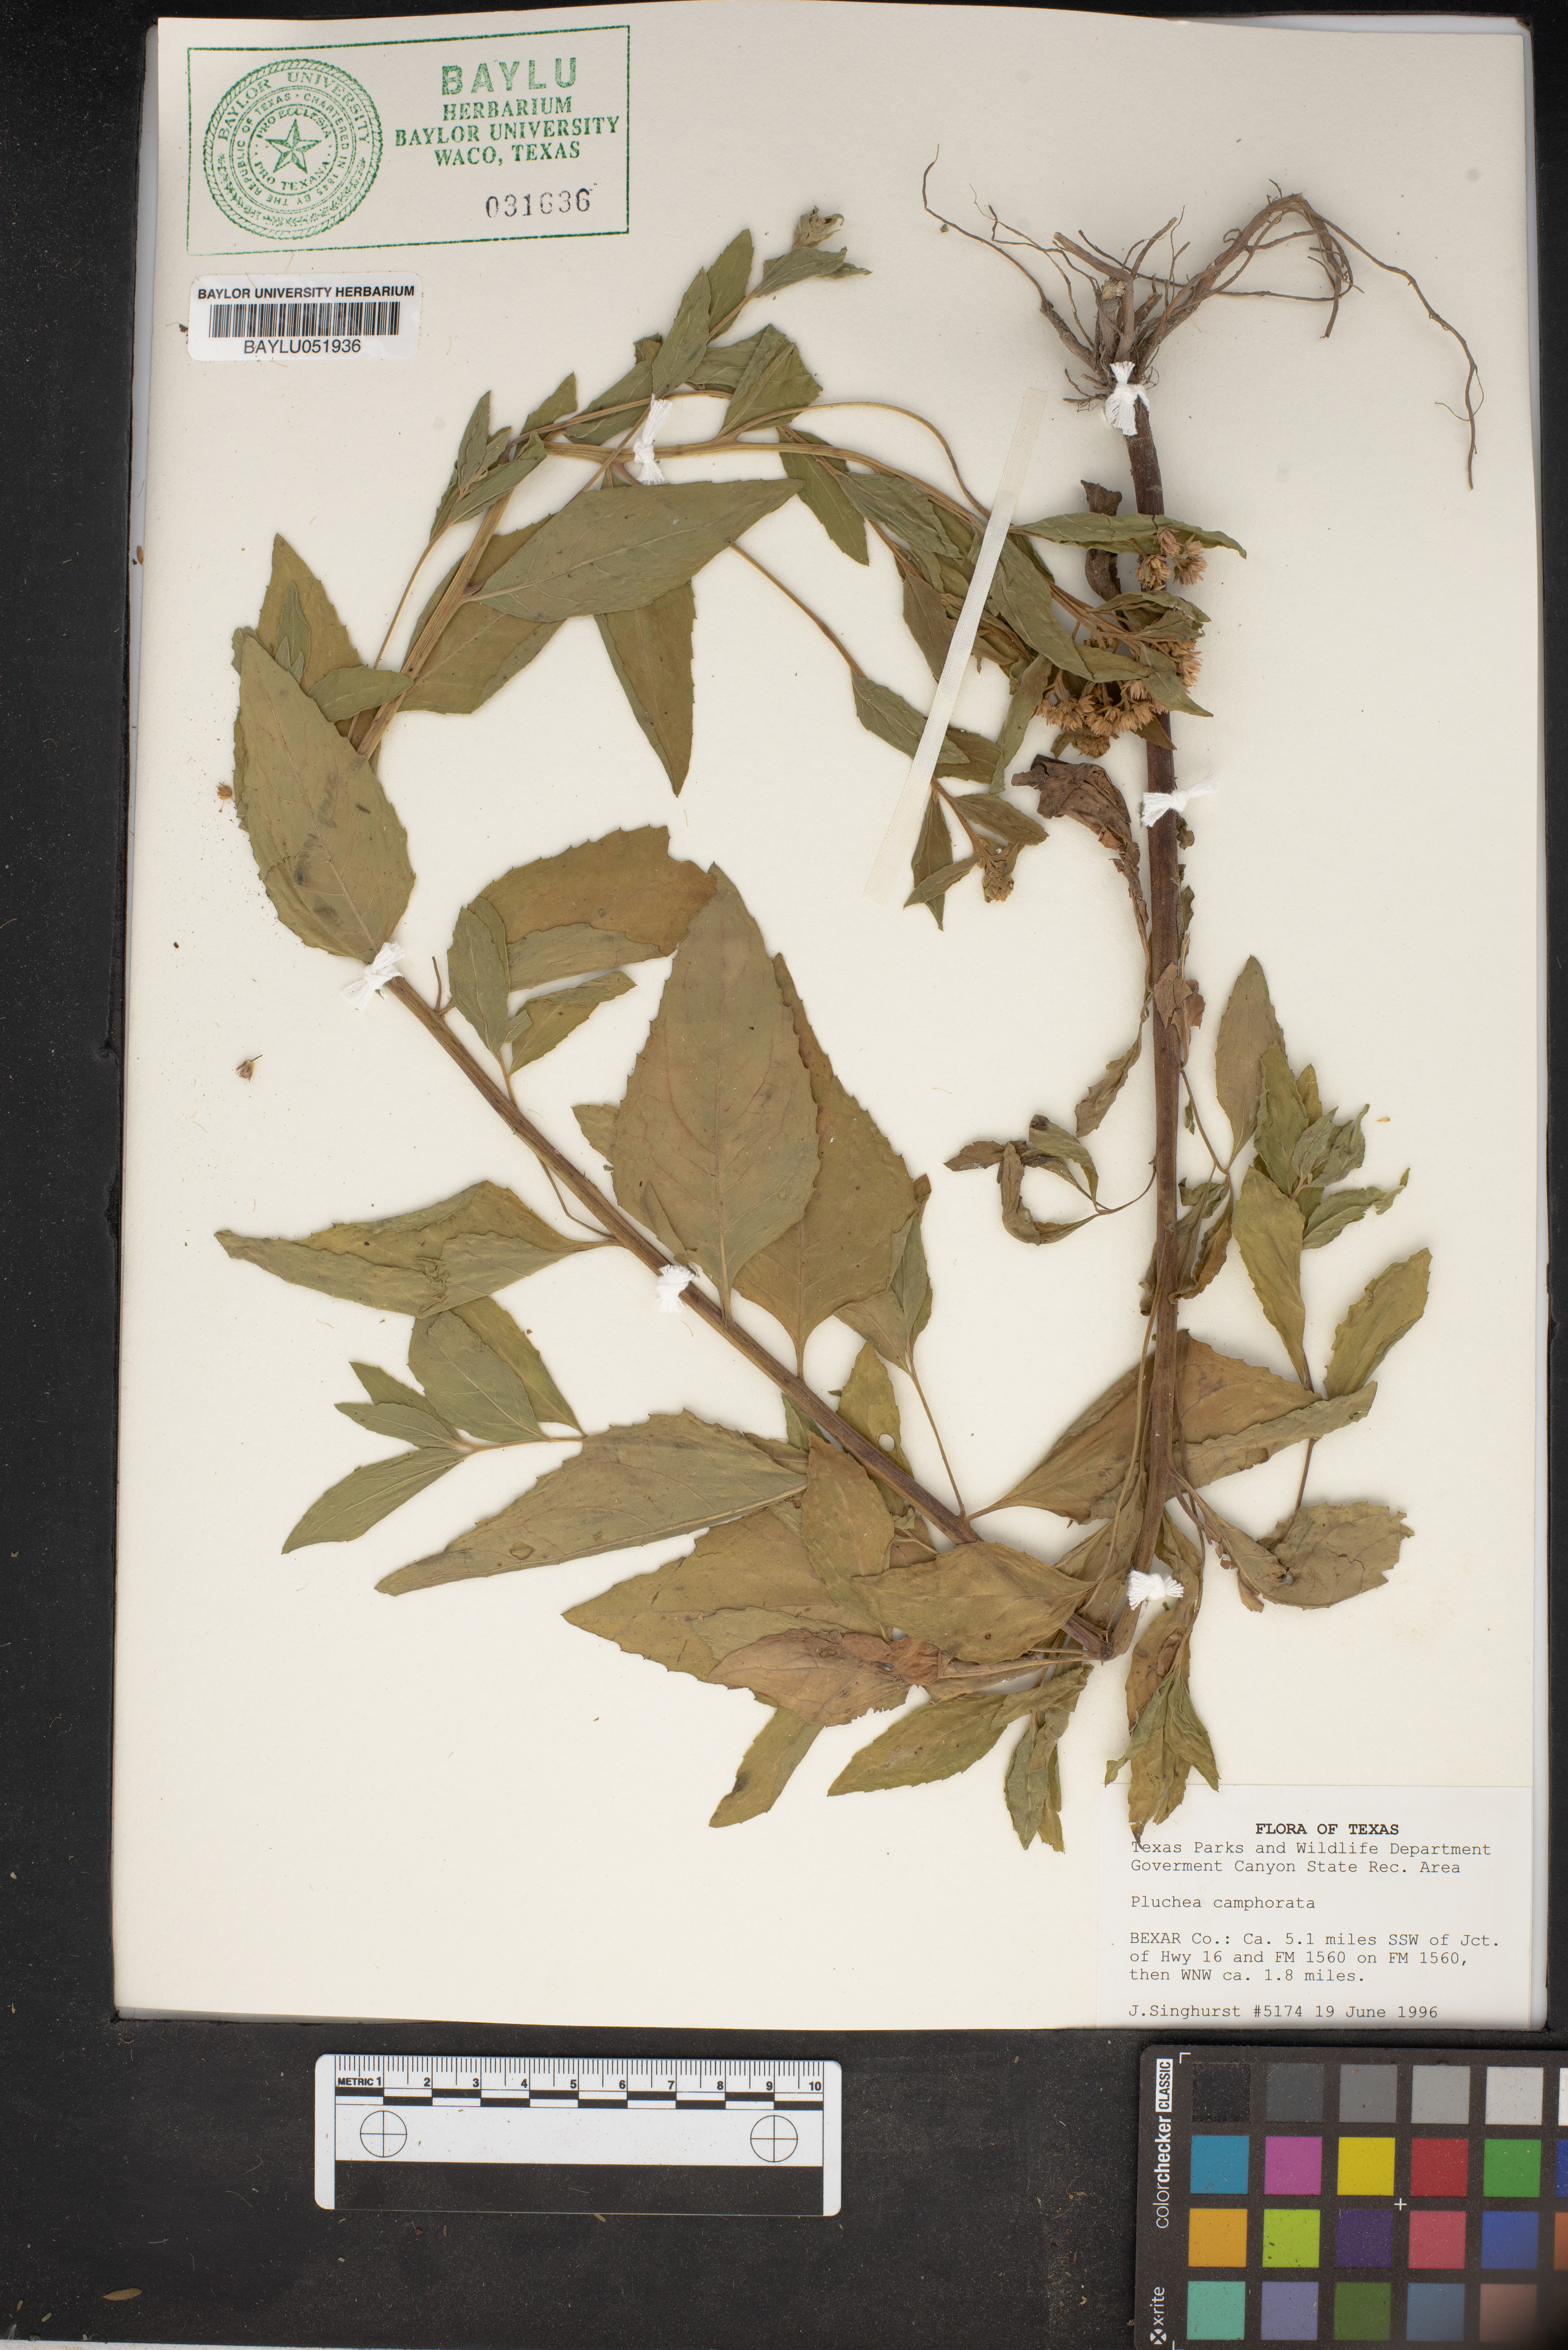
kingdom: Plantae
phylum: Tracheophyta
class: Magnoliopsida
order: Asterales
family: Asteraceae
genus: Pluchea
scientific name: Pluchea camphorata
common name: Camphor pluchea
